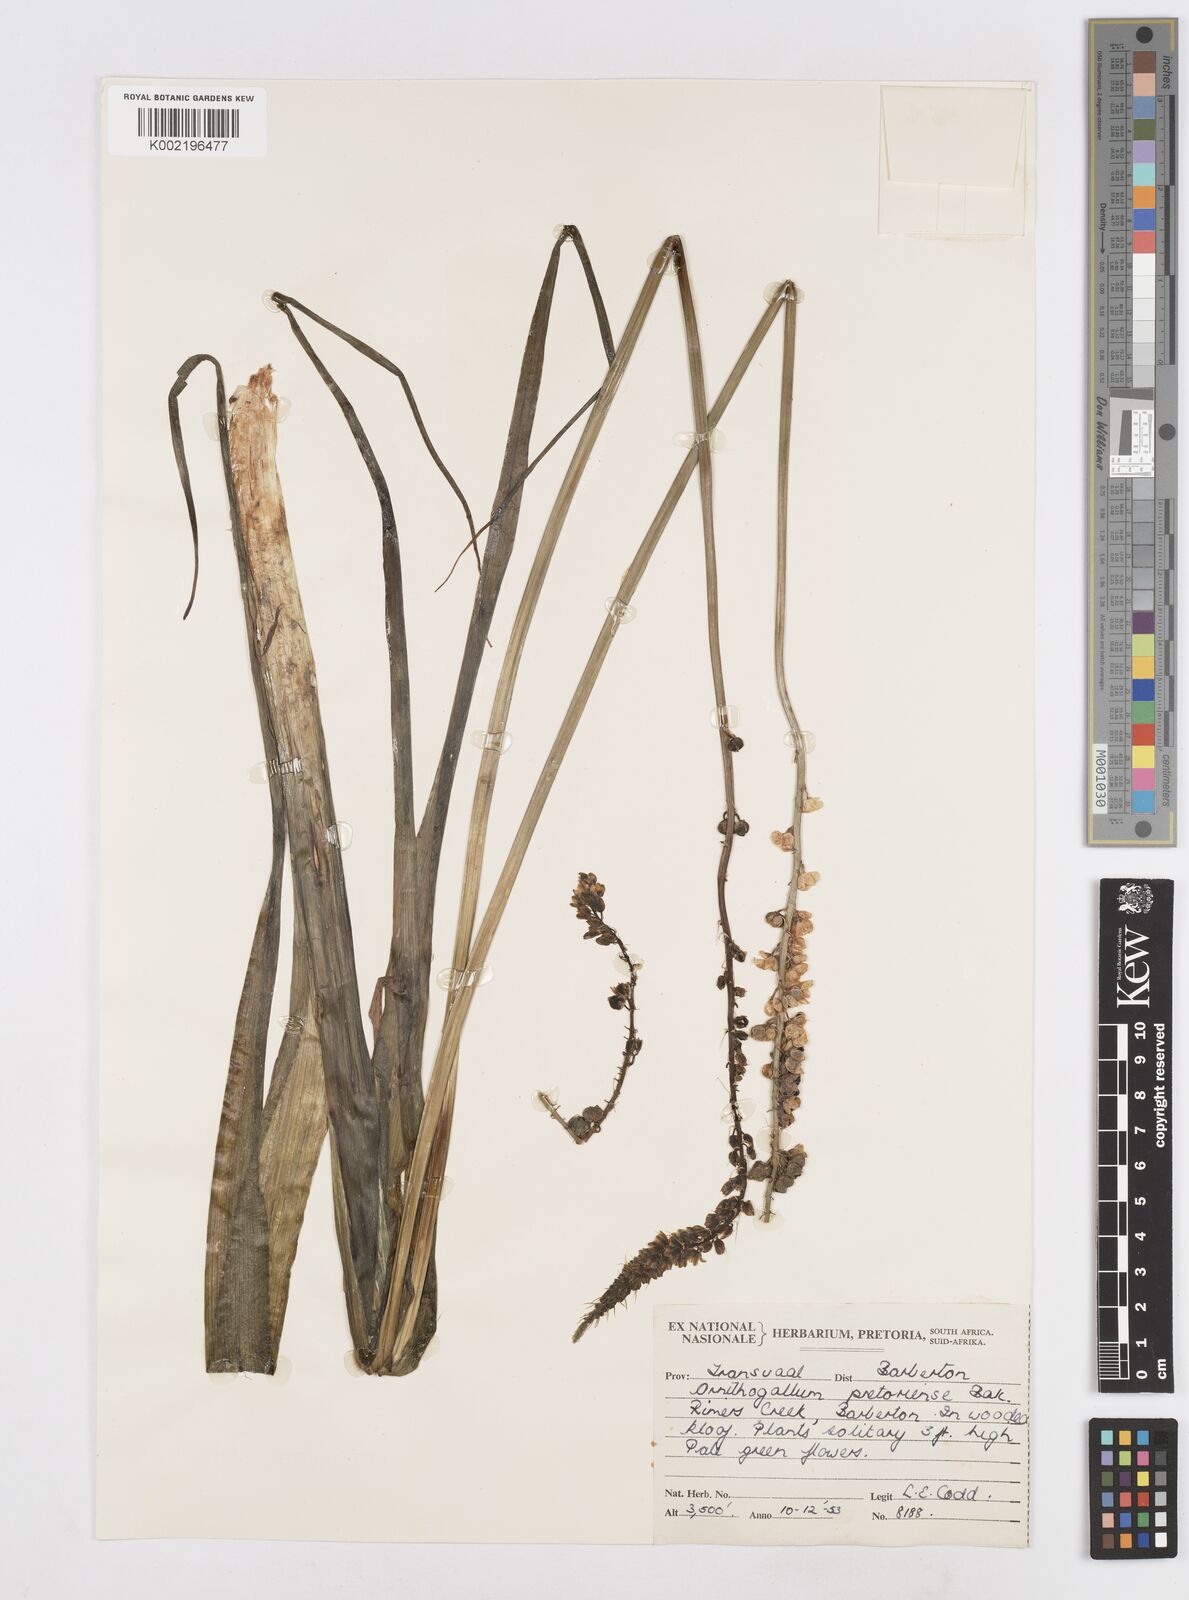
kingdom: Plantae
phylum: Tracheophyta
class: Liliopsida
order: Asparagales
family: Asparagaceae
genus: Albuca
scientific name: Albuca virens
